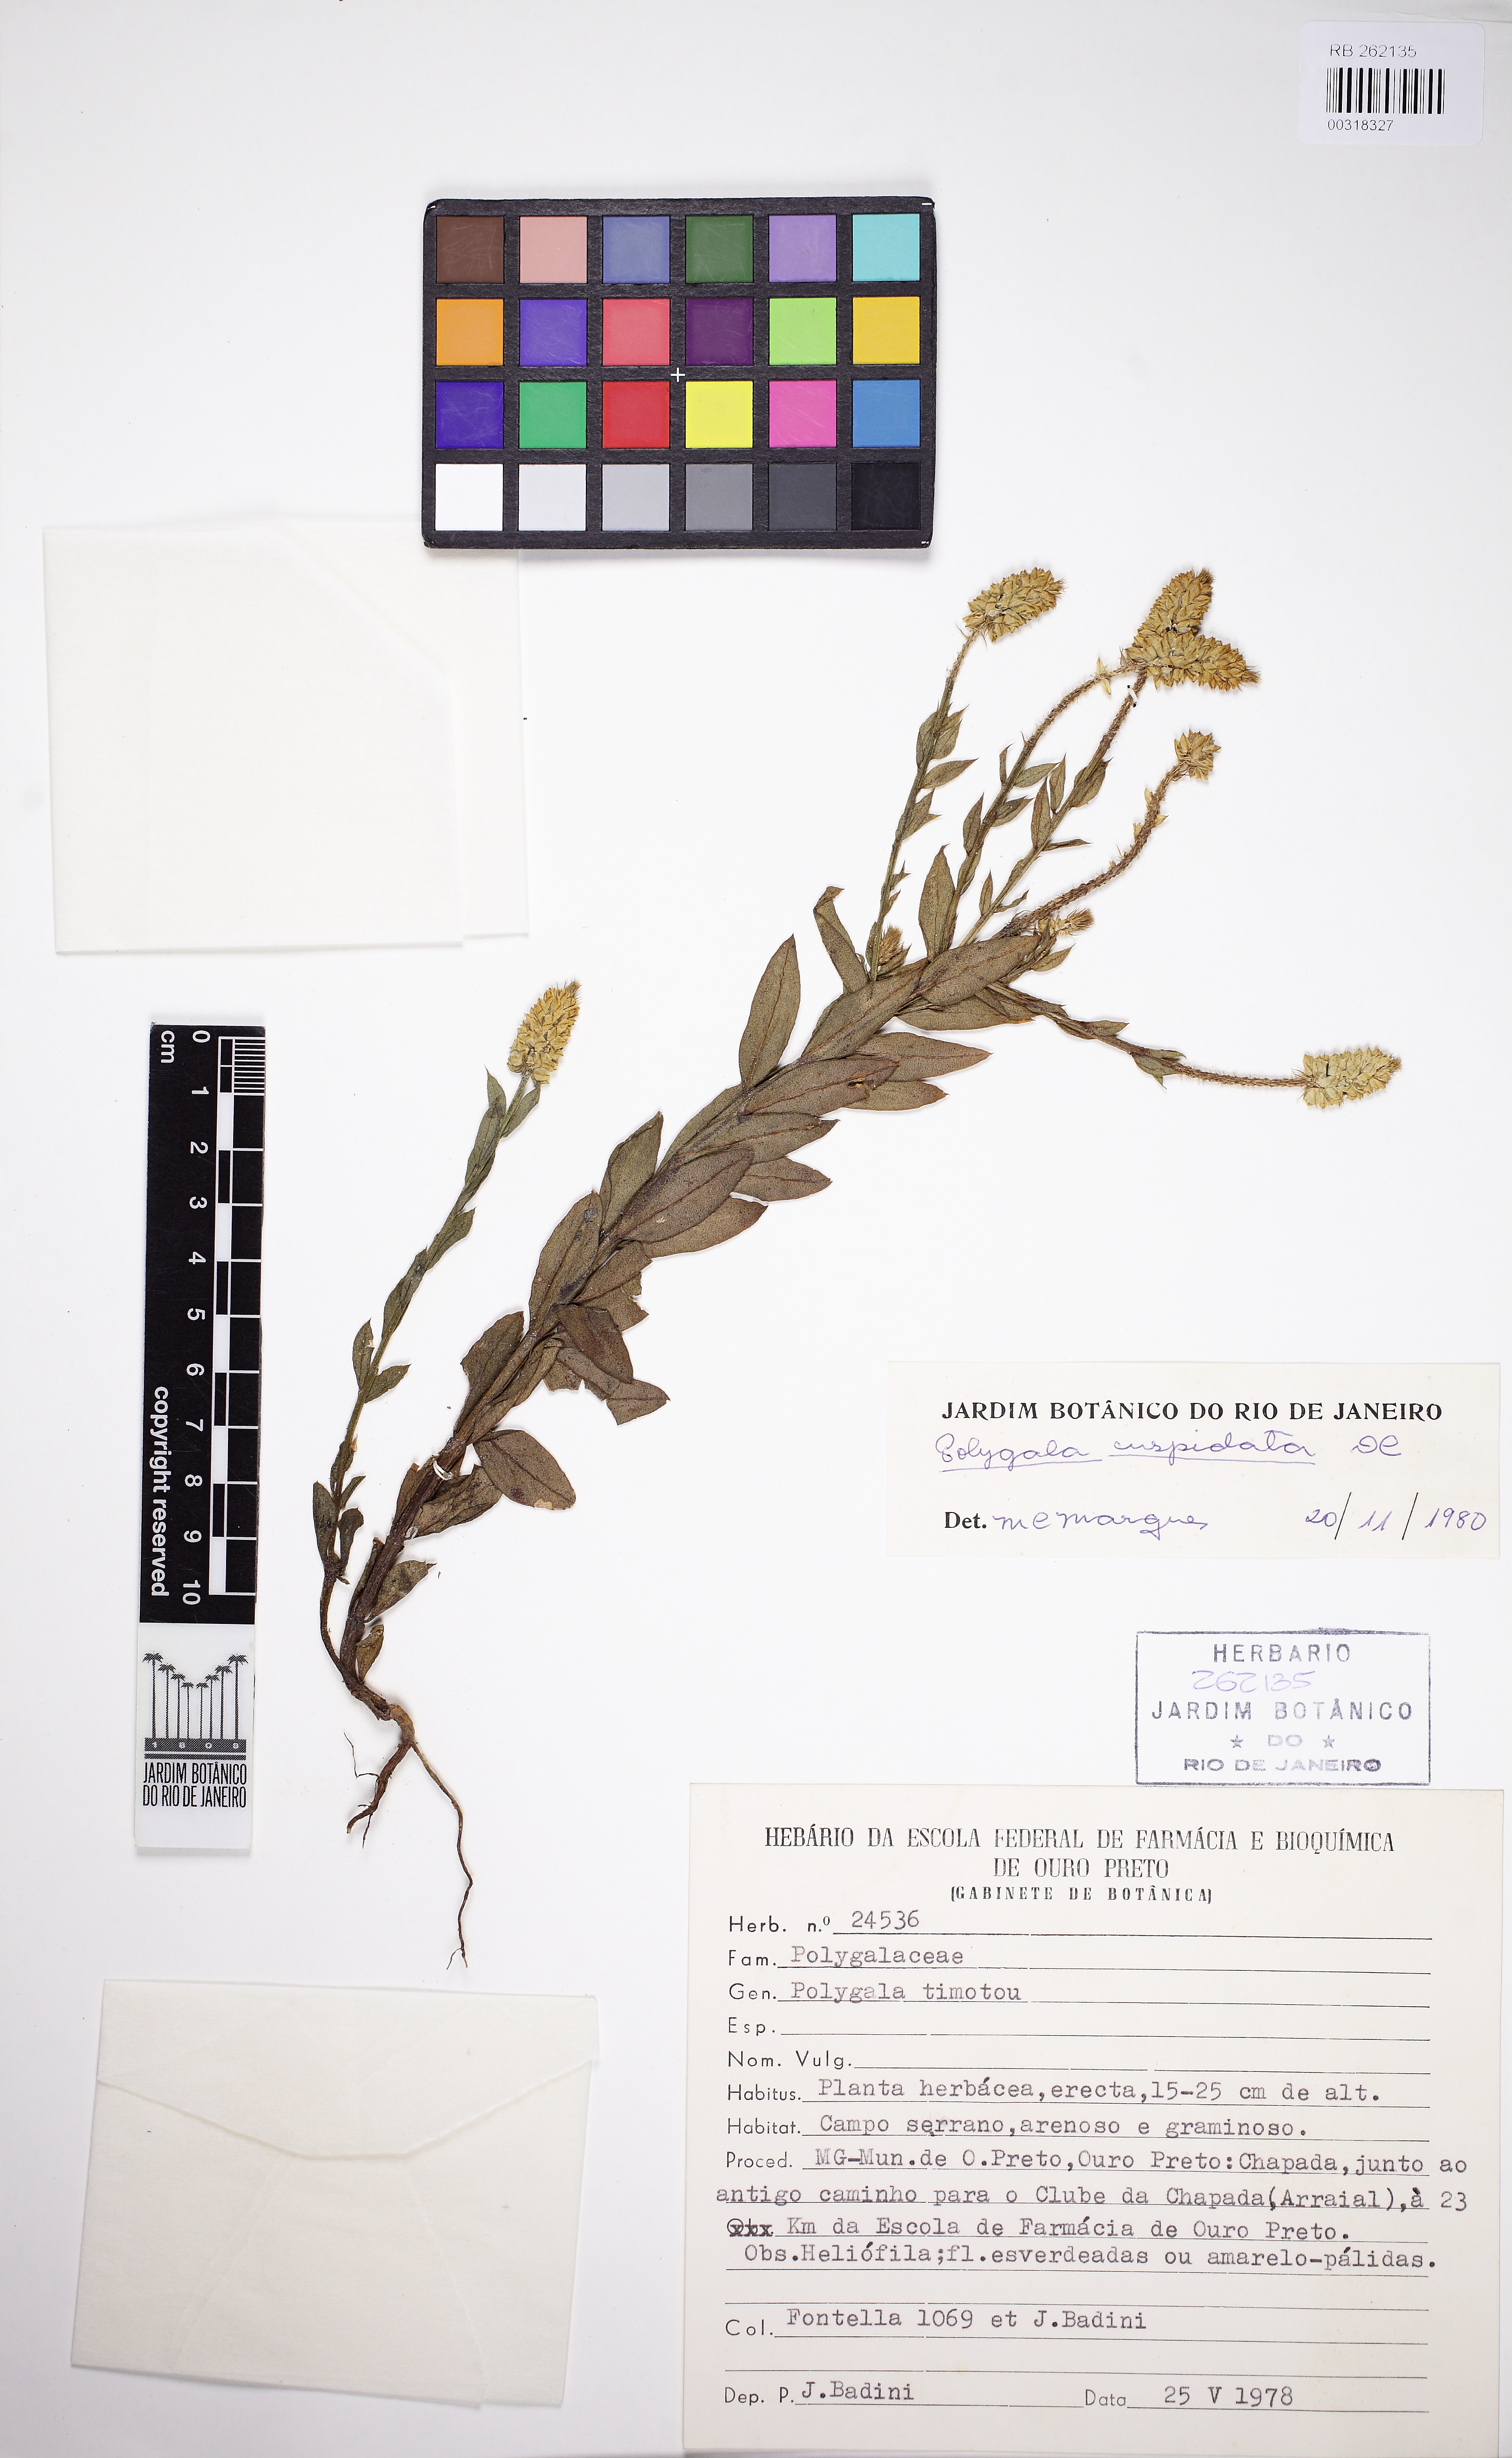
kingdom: Plantae
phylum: Tracheophyta
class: Magnoliopsida
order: Fabales
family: Polygalaceae
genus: Polygala
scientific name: Polygala cuspidata
